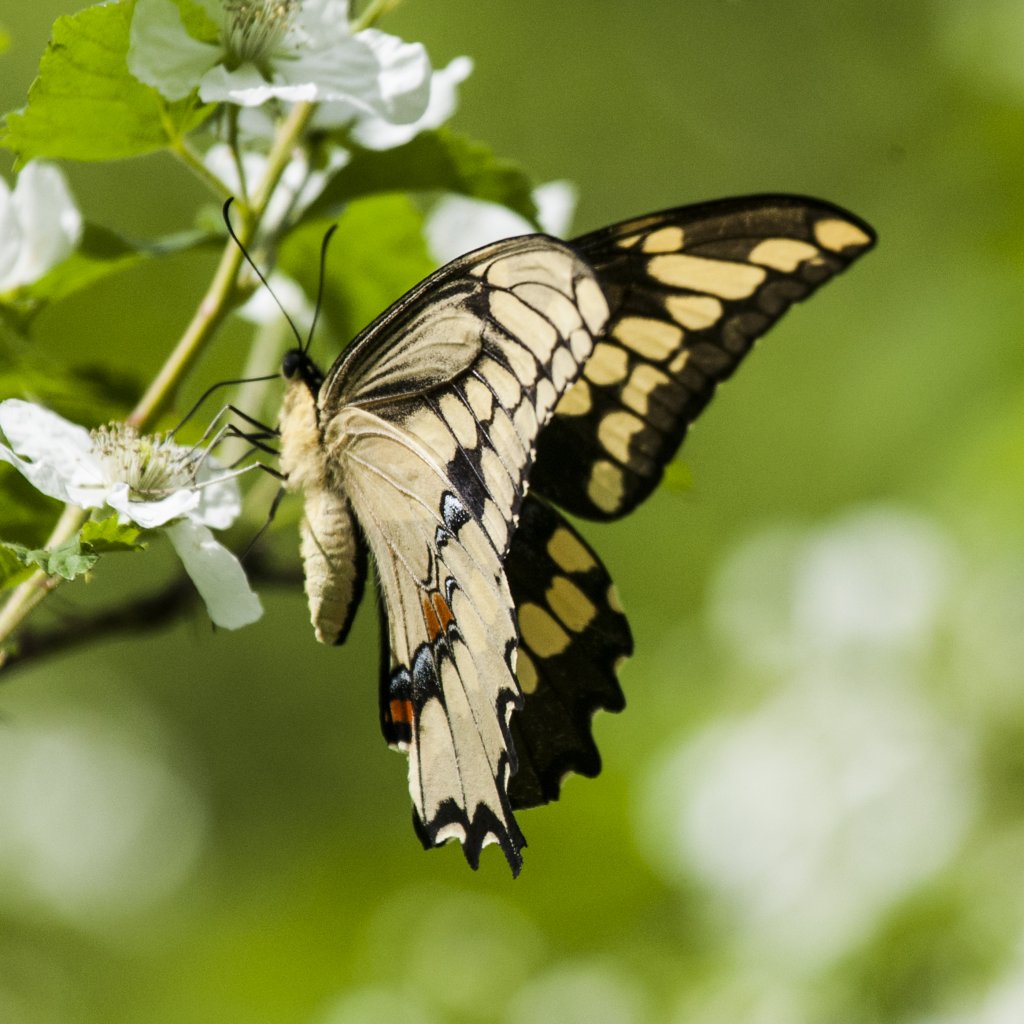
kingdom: Animalia
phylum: Arthropoda
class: Insecta
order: Lepidoptera
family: Papilionidae
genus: Papilio
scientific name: Papilio cresphontes
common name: Eastern Giant Swallowtail
